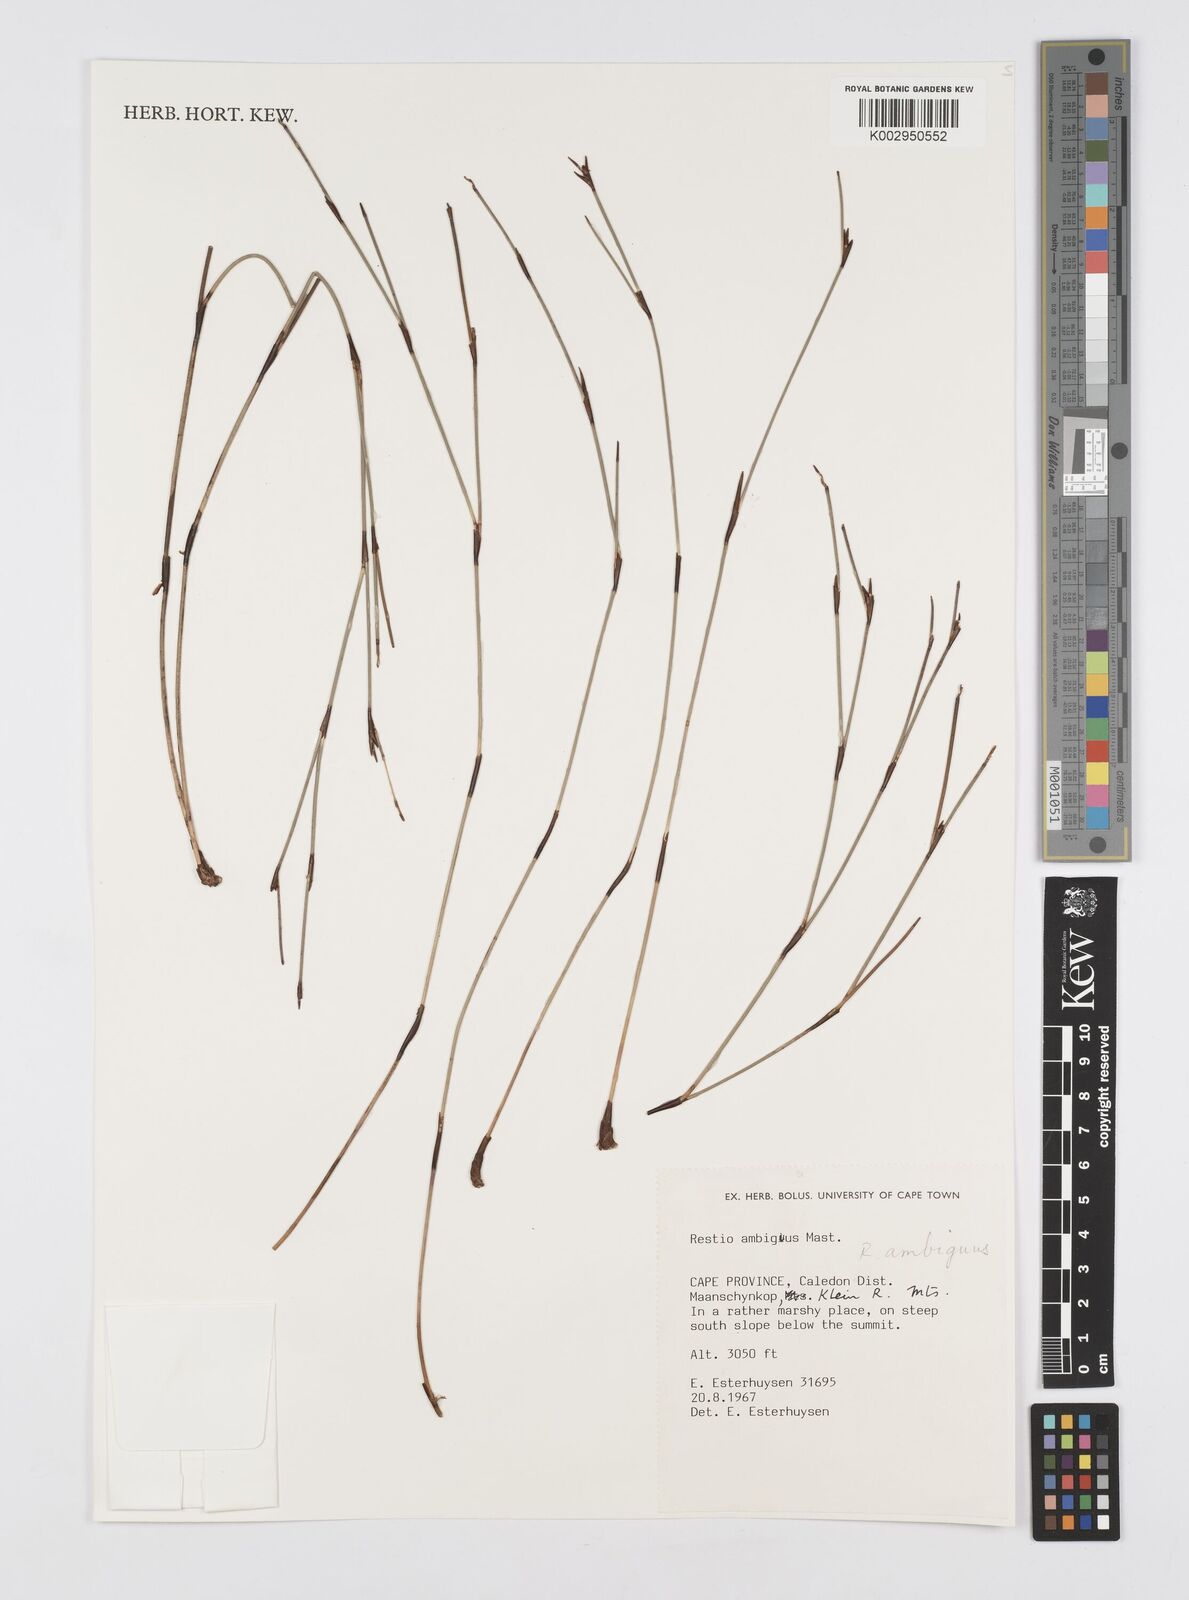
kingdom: Plantae
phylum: Tracheophyta
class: Liliopsida
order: Poales
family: Restionaceae
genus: Soroveta
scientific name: Soroveta ambigua
